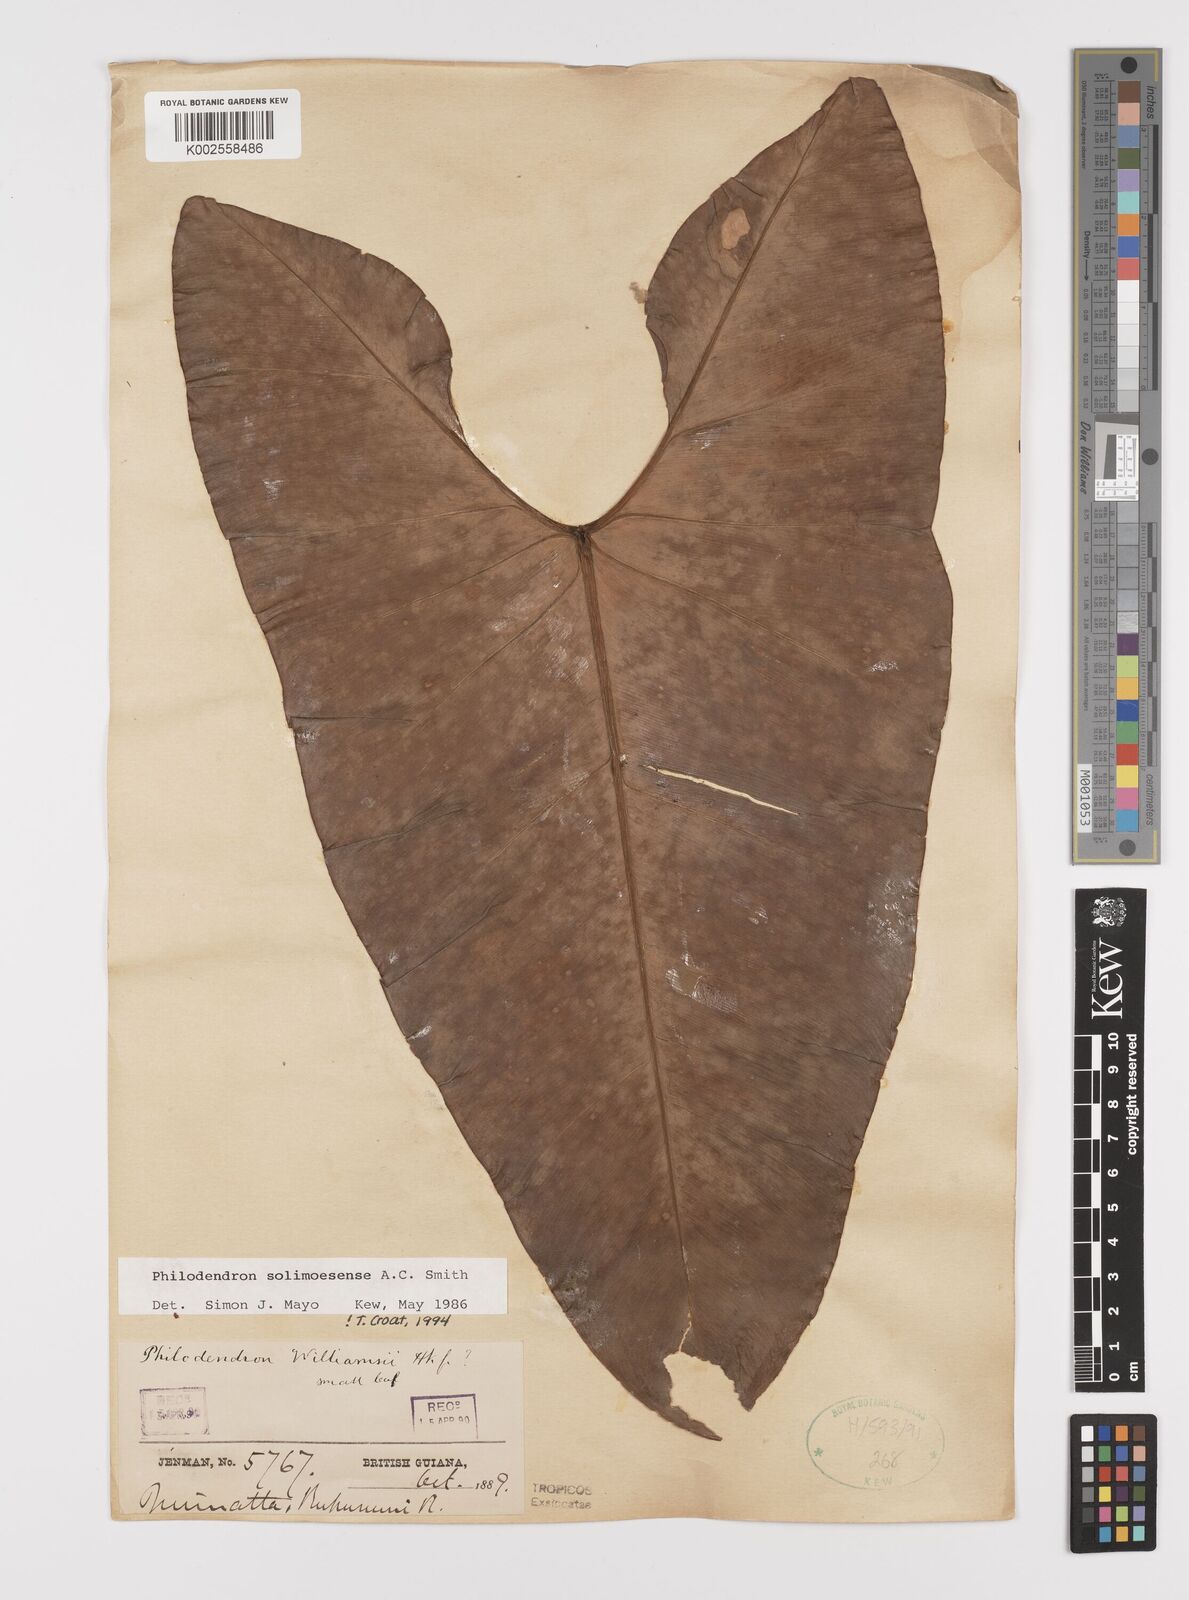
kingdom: Plantae
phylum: Tracheophyta
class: Liliopsida
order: Alismatales
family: Araceae
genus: Thaumatophyllum
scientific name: Thaumatophyllum solimoesense
